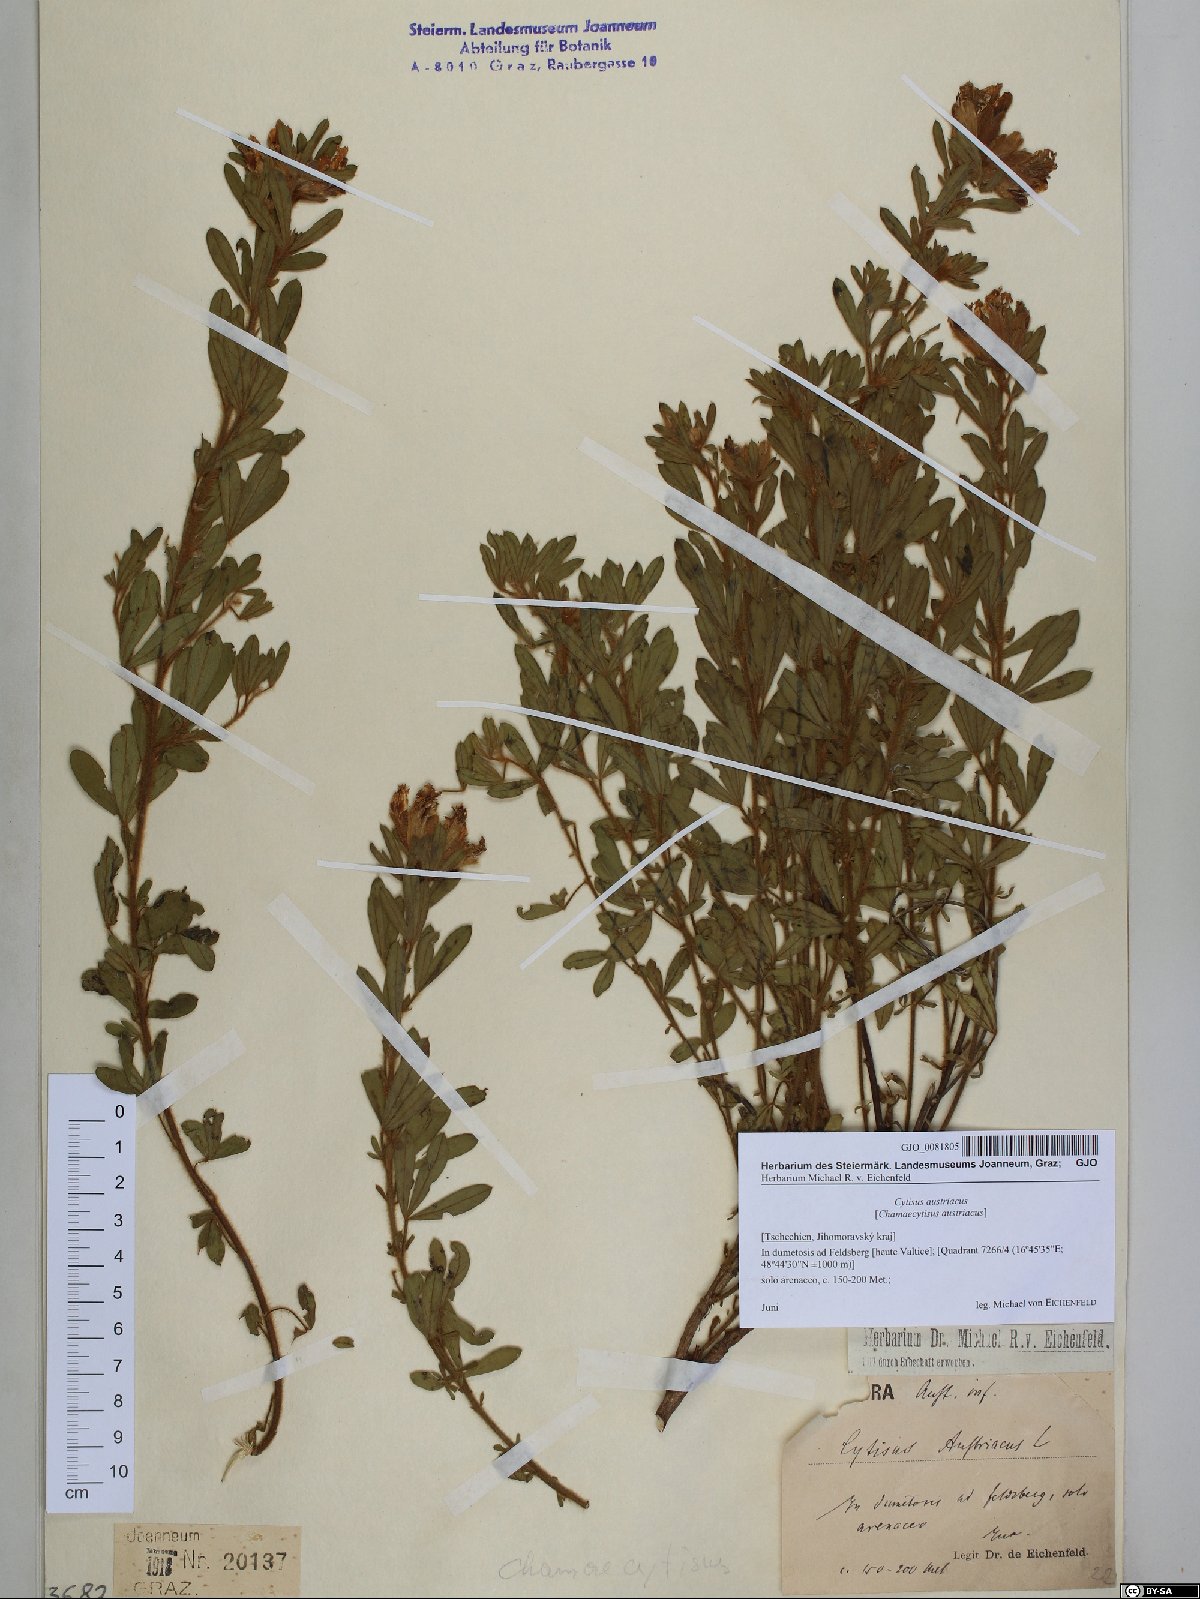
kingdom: Plantae
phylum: Tracheophyta
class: Magnoliopsida
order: Fabales
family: Fabaceae
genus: Chamaecytisus
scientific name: Chamaecytisus austriacus
